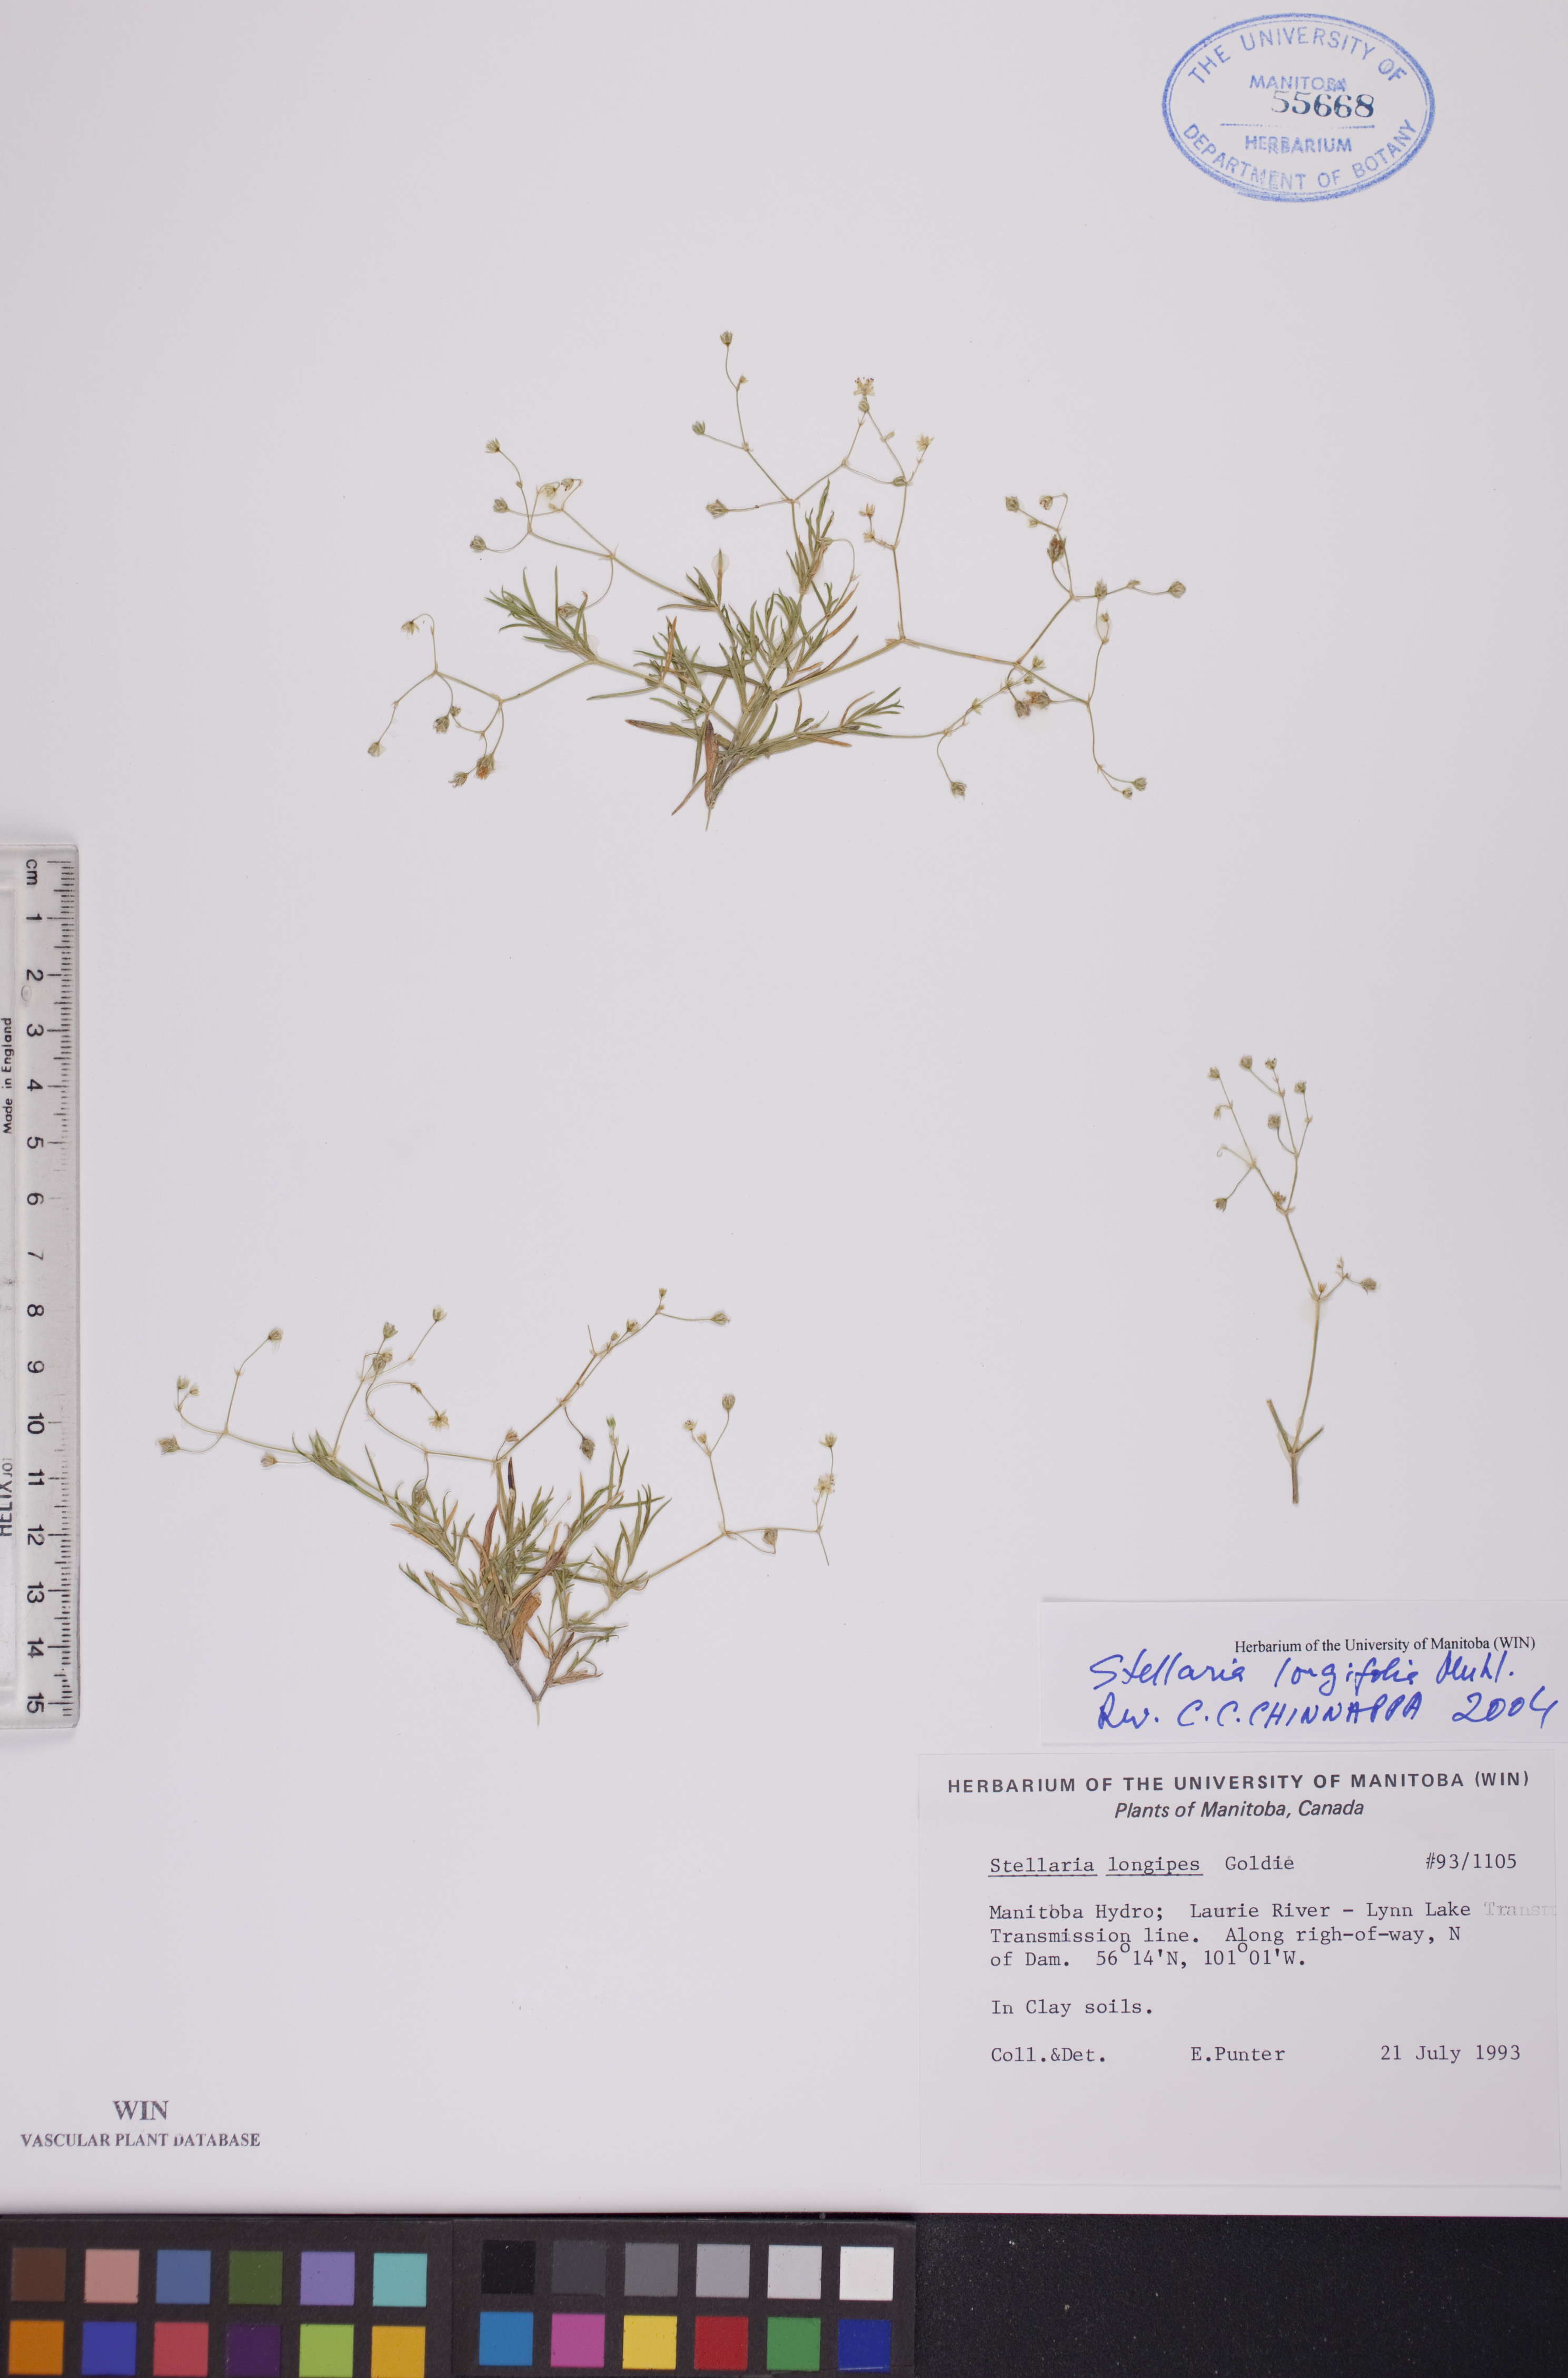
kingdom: Plantae
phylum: Tracheophyta
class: Magnoliopsida
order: Caryophyllales
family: Caryophyllaceae
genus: Stellaria
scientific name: Stellaria longifolia
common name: Long-leaved chickweed
